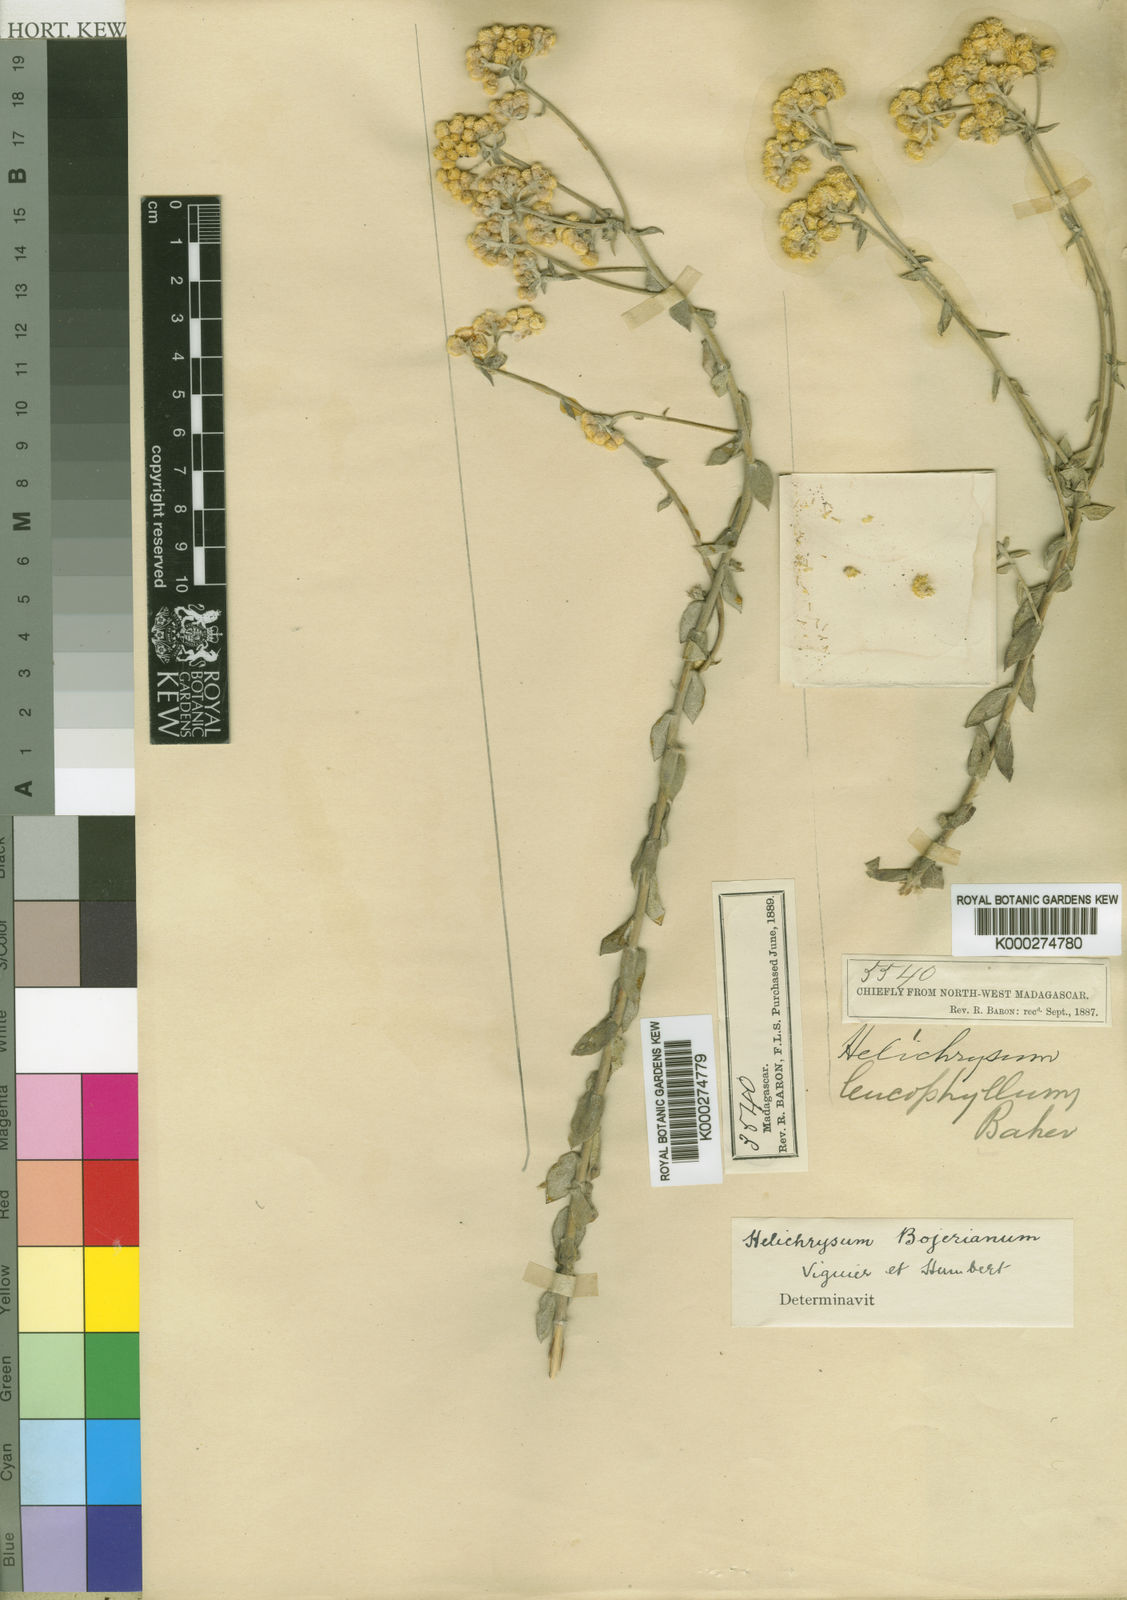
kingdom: Plantae
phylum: Tracheophyta
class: Magnoliopsida
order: Asterales
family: Asteraceae
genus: Helichrysum
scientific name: Helichrysum
